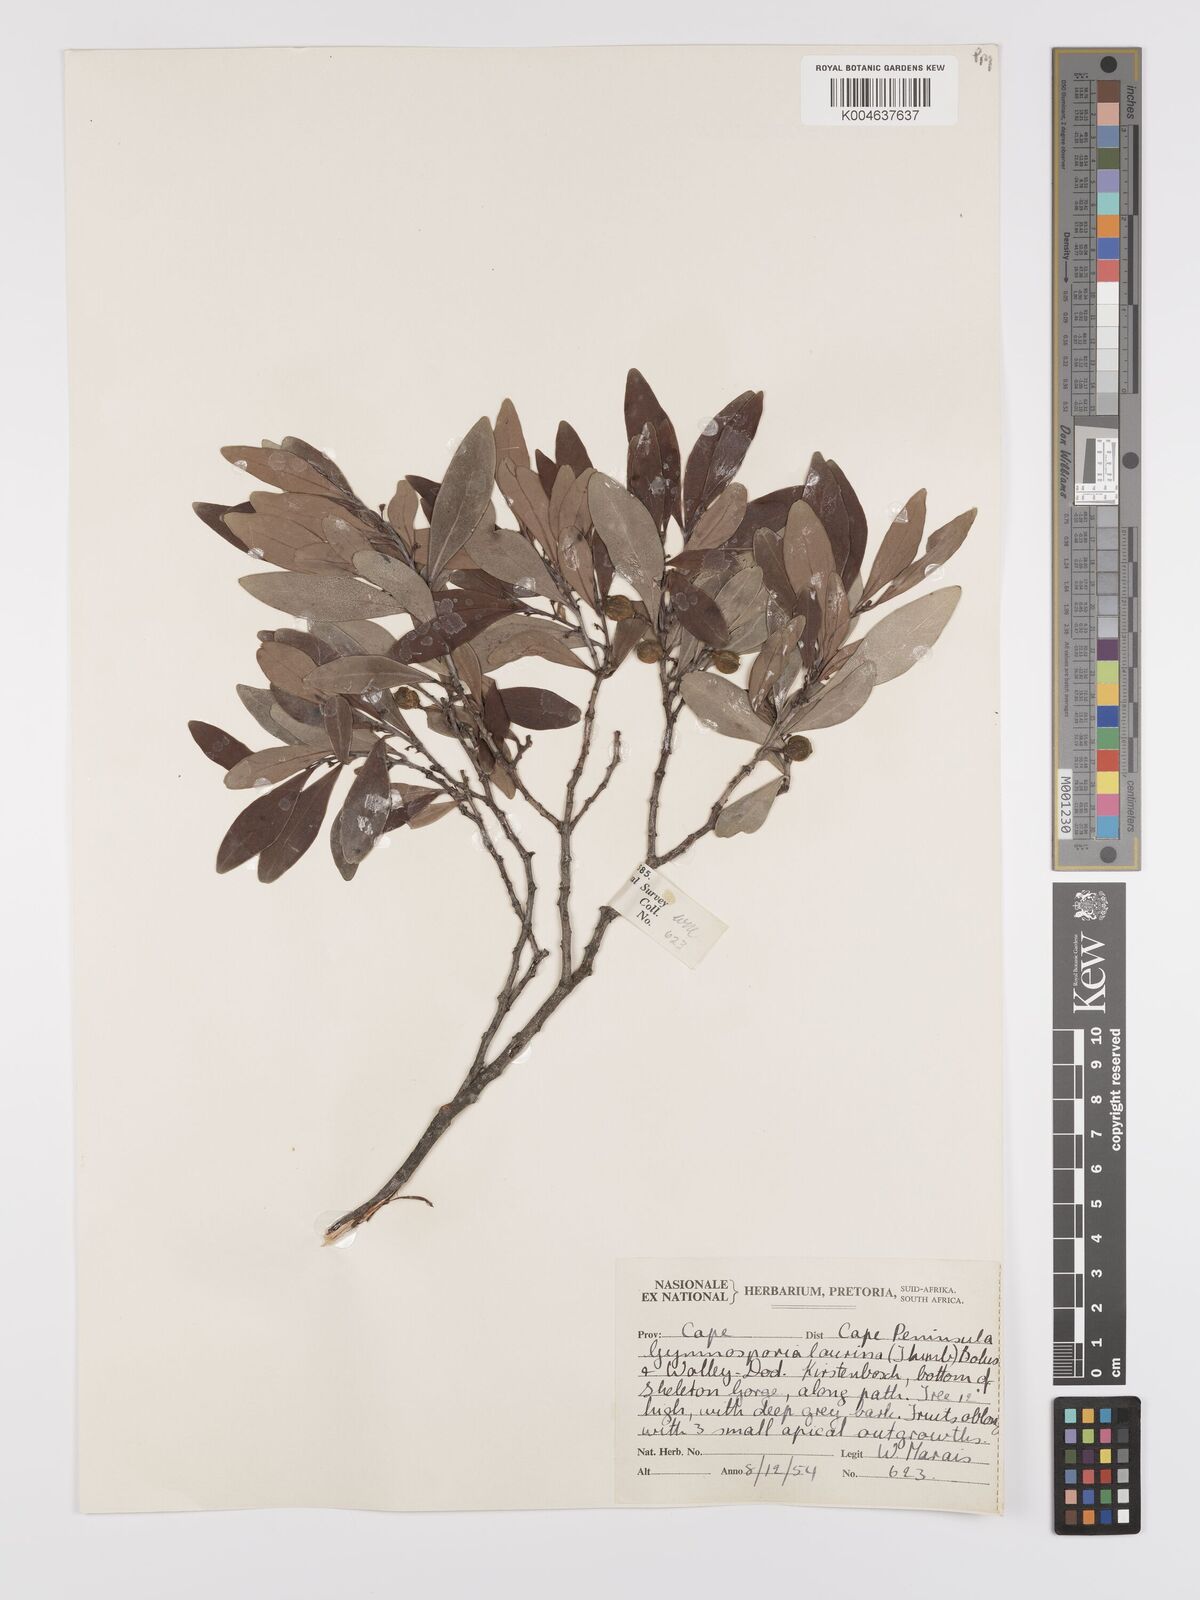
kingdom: Plantae
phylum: Tracheophyta
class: Magnoliopsida
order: Celastrales
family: Celastraceae
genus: Gymnosporia
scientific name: Gymnosporia laurina
